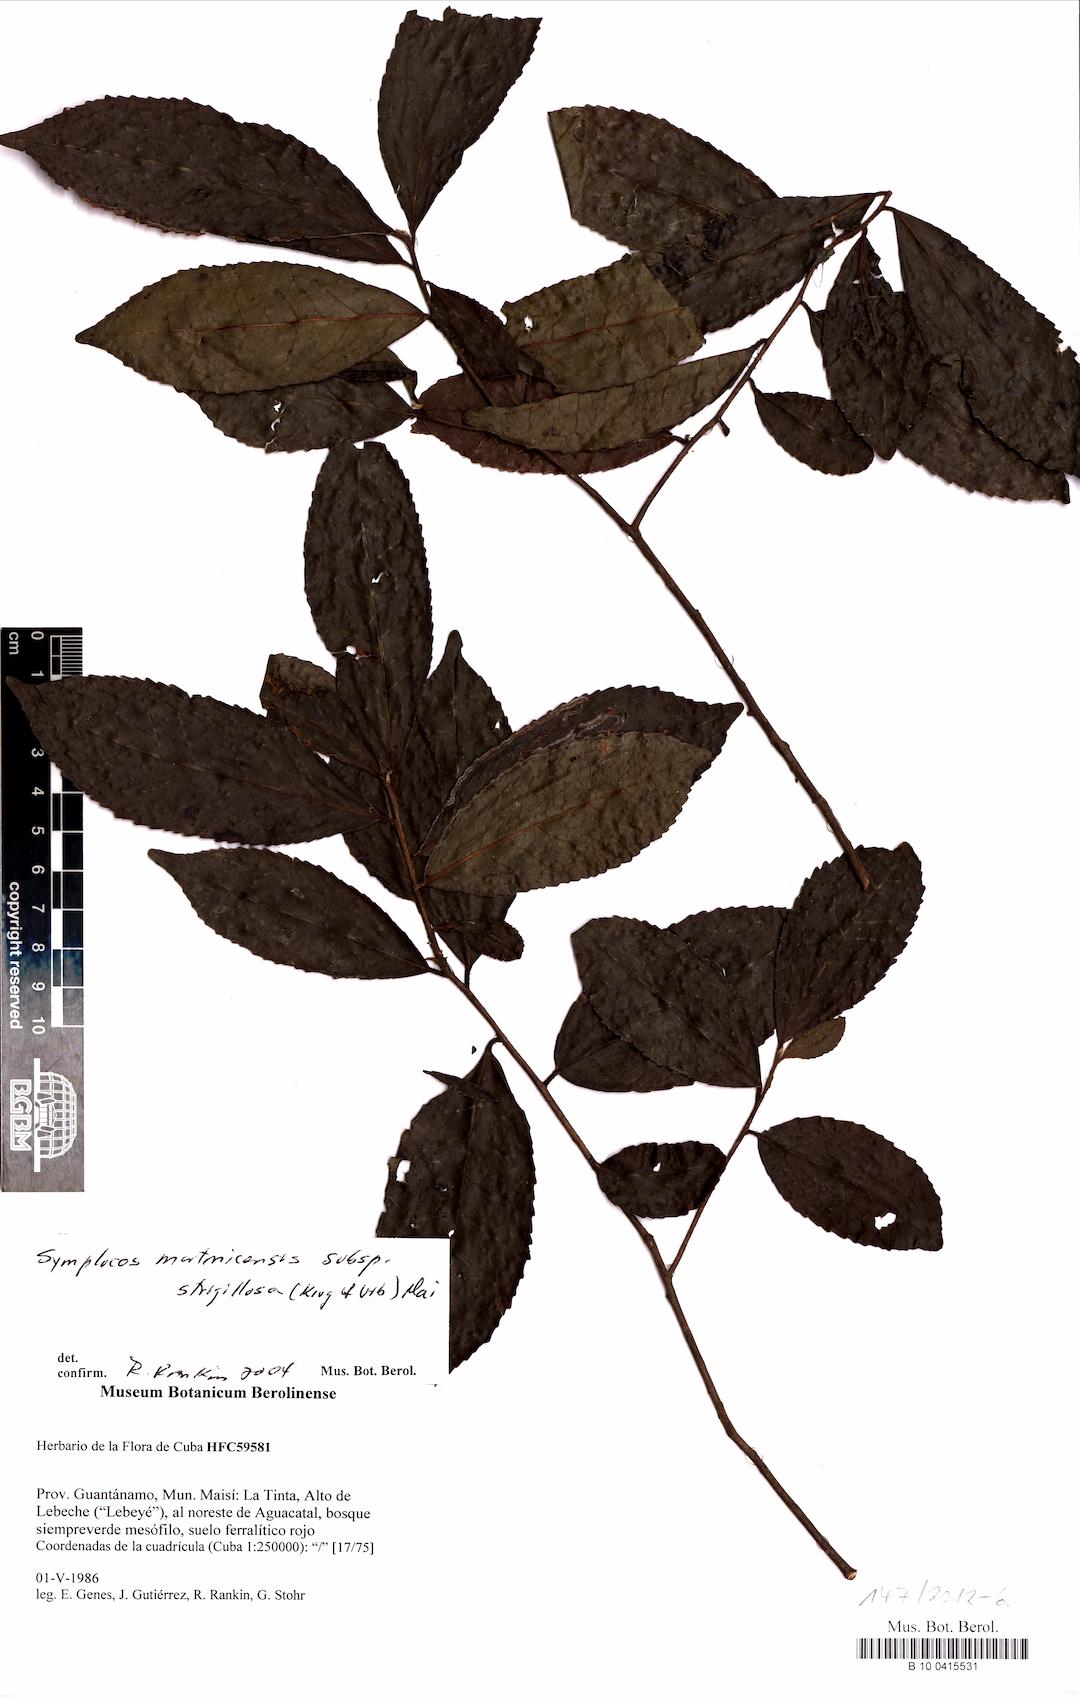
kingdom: Plantae
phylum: Tracheophyta
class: Magnoliopsida
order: Ericales
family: Symplocaceae
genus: Symplocos
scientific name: Symplocos jurgensenii
